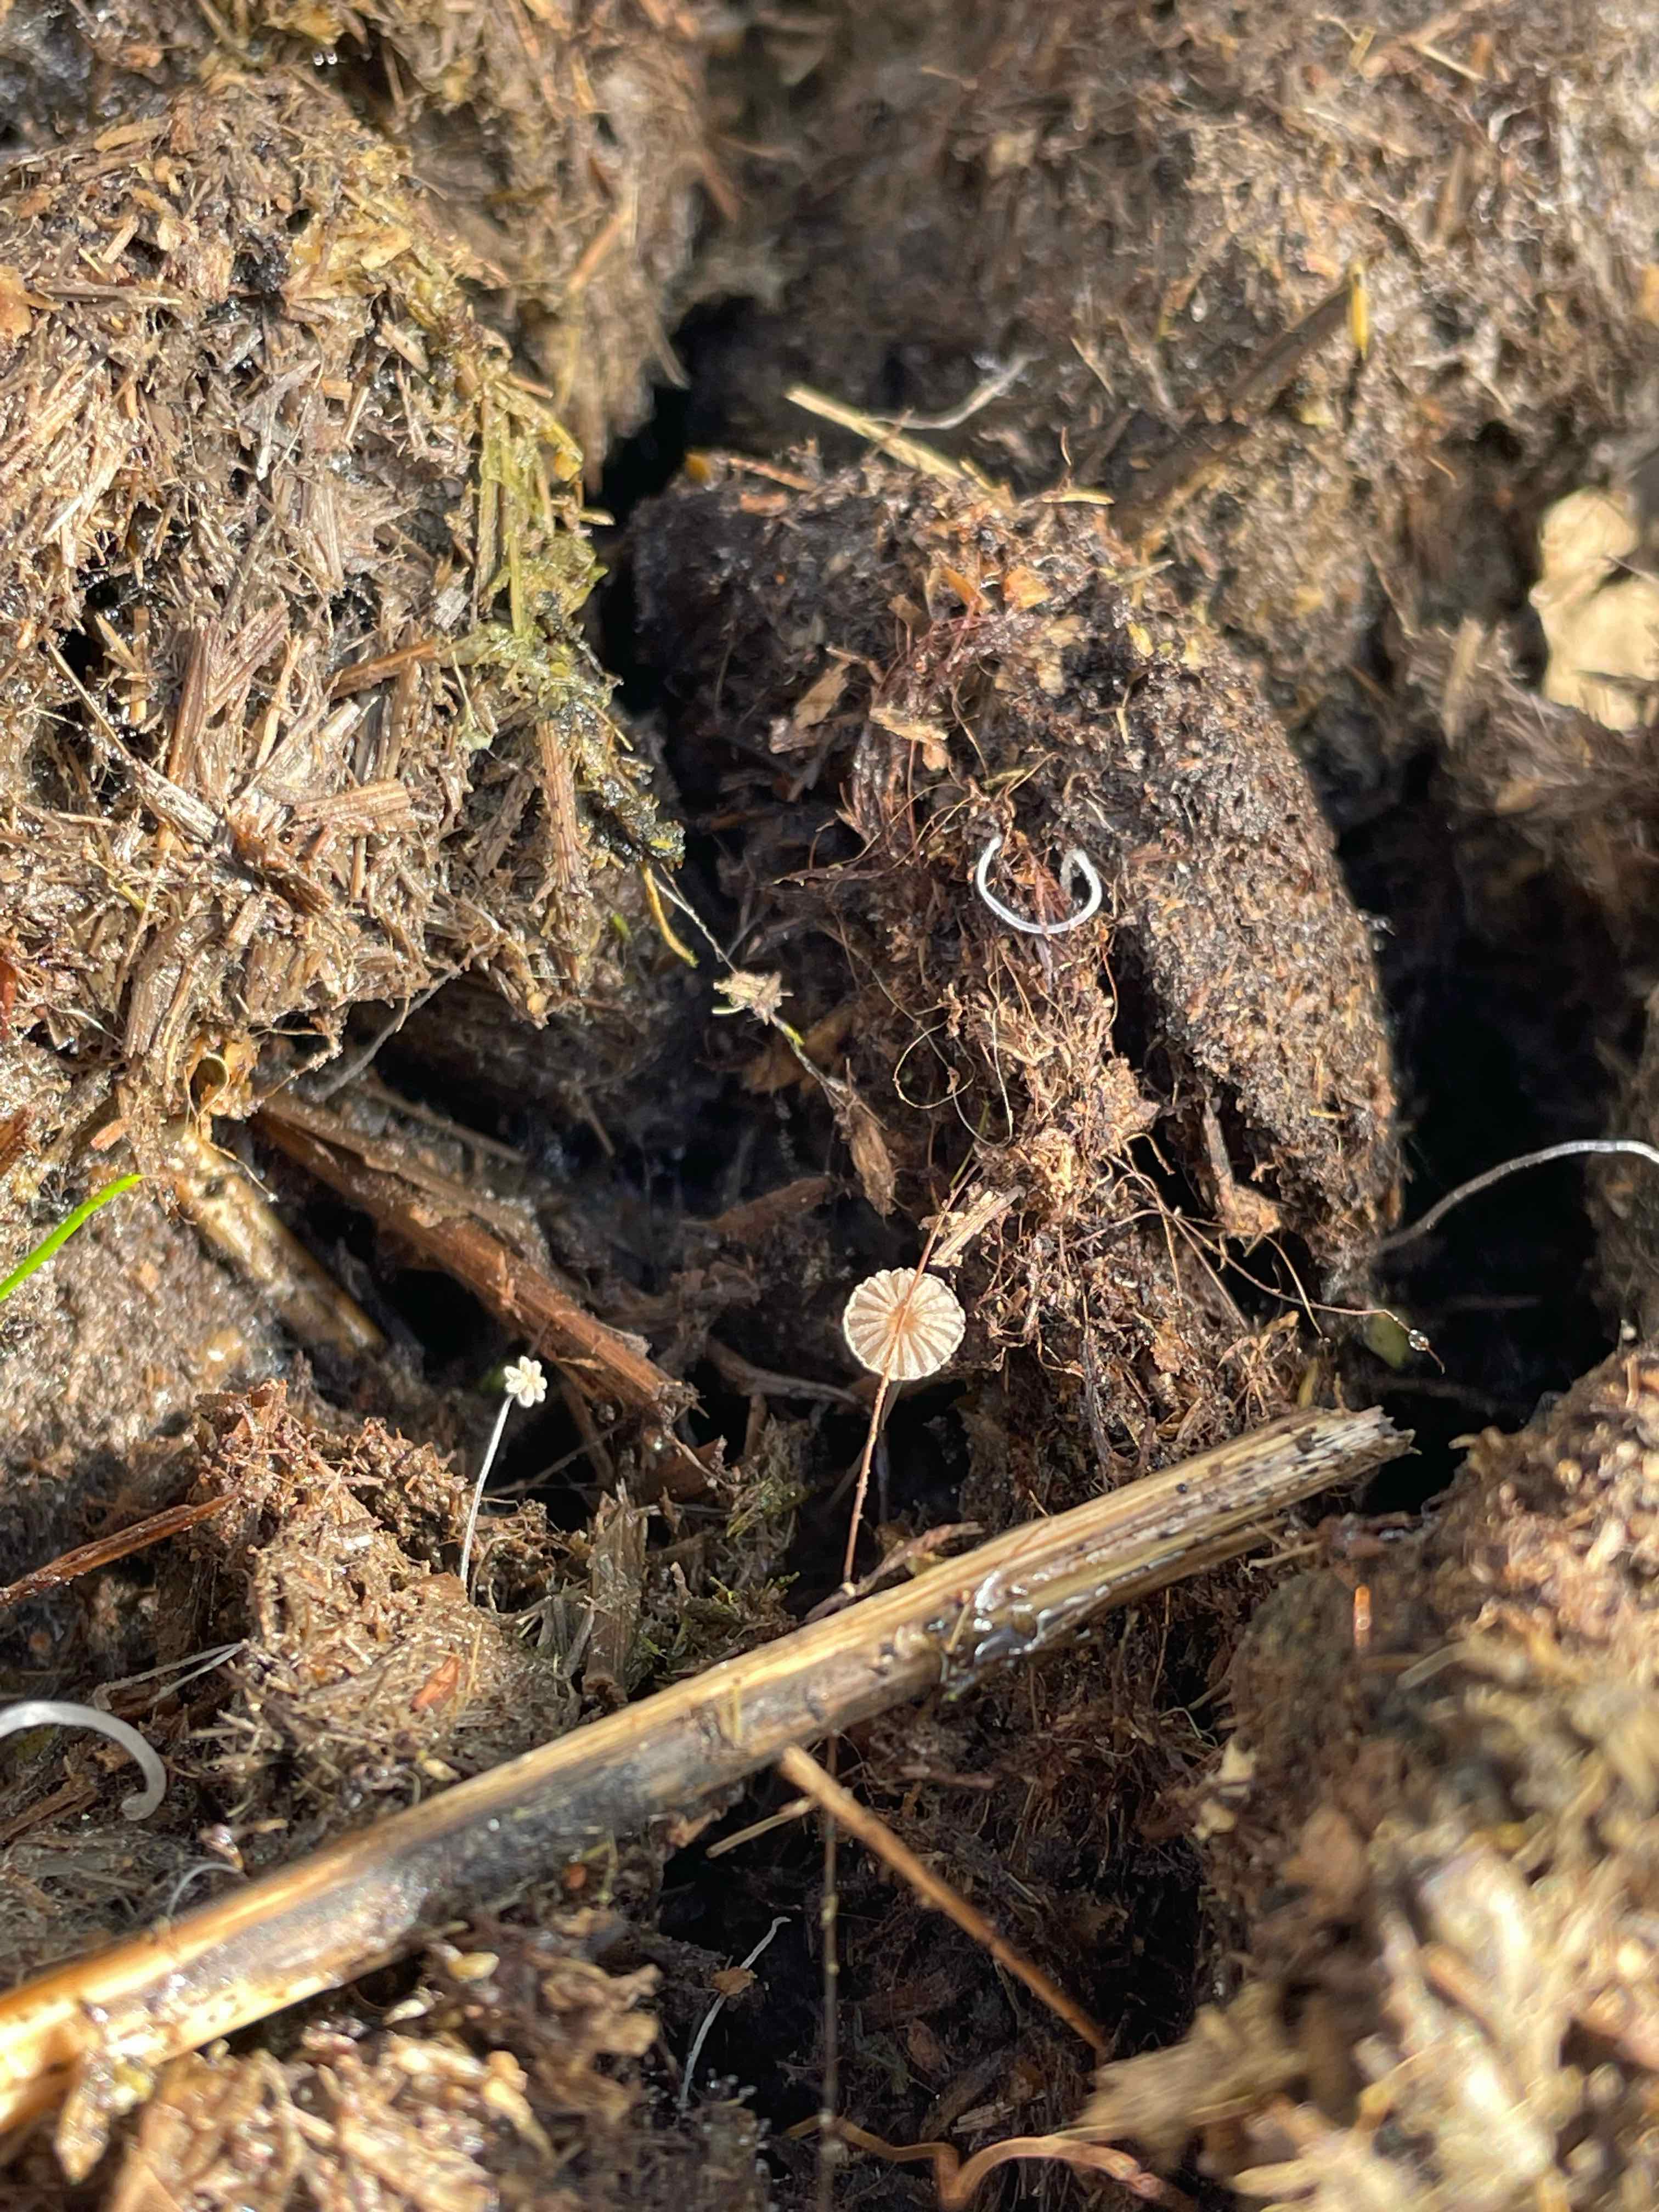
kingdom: Fungi
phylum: Basidiomycota
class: Agaricomycetes
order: Agaricales
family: Psathyrellaceae
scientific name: Psathyrellaceae
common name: mørkhatfamilien
